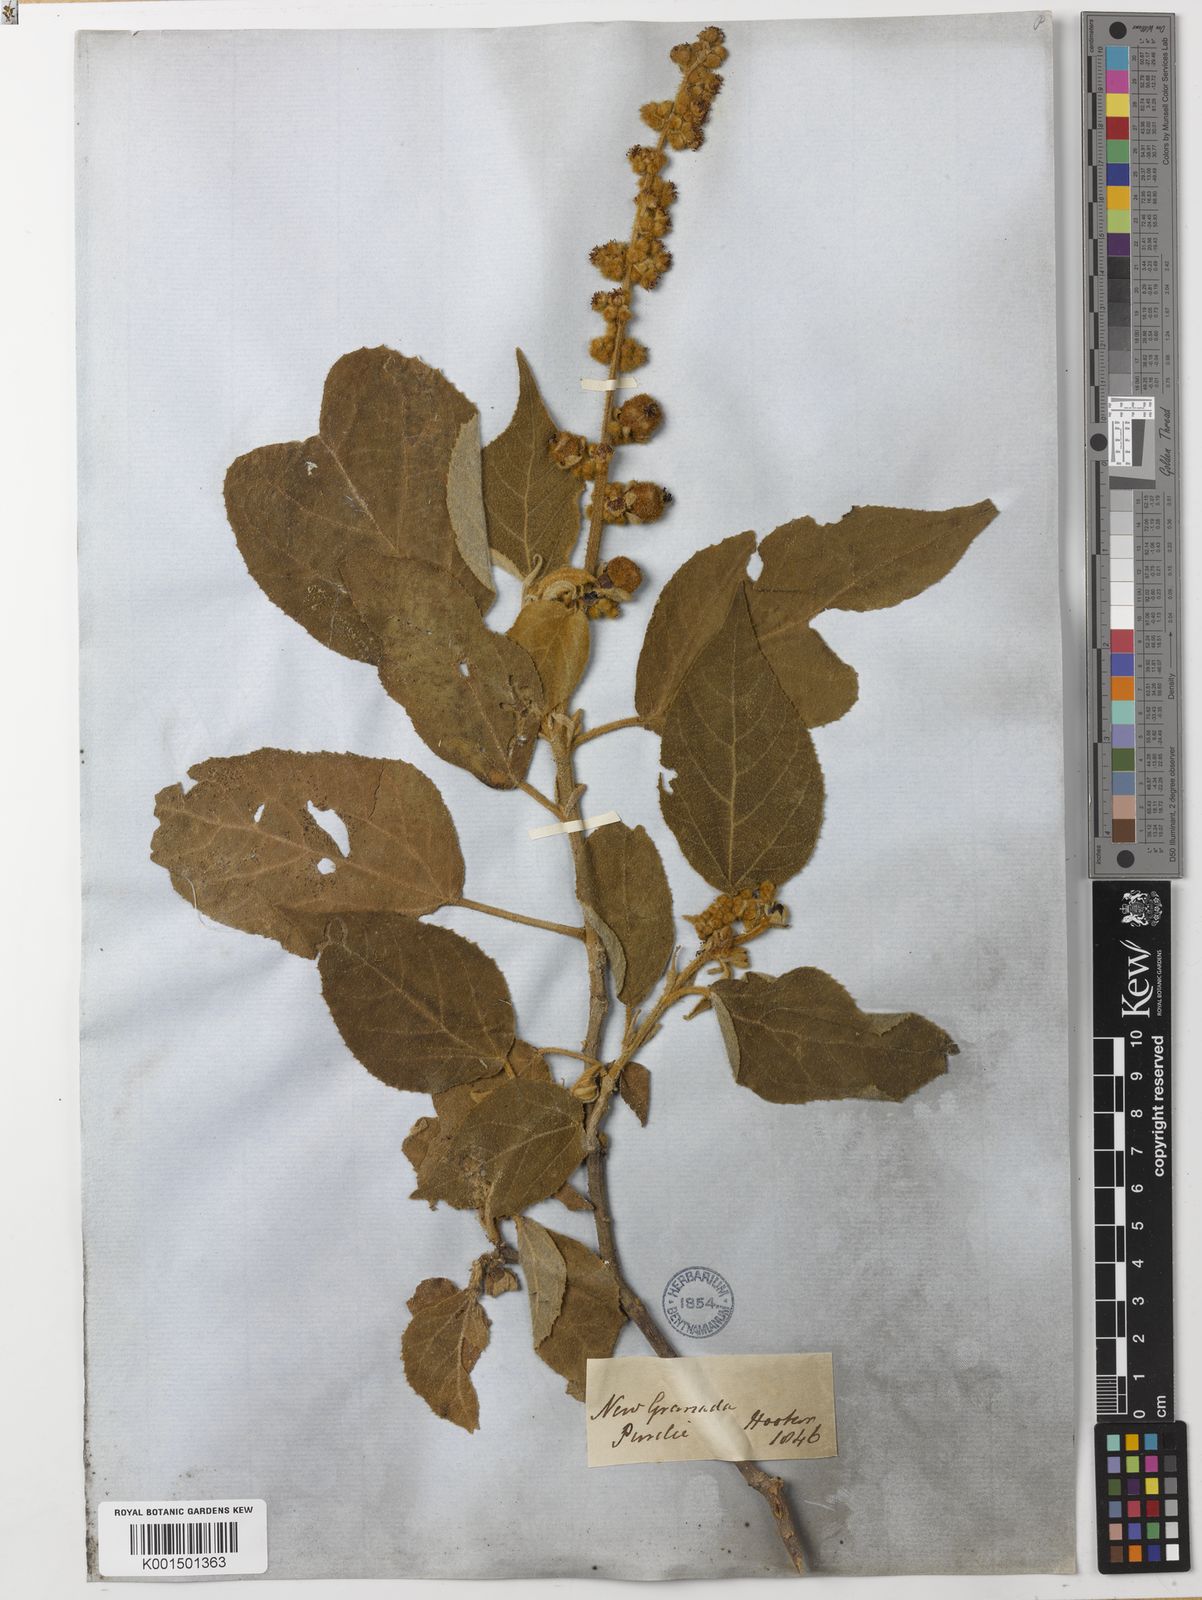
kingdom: Plantae
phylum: Tracheophyta
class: Magnoliopsida
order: Malpighiales
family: Euphorbiaceae
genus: Croton
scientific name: Croton purdiei
